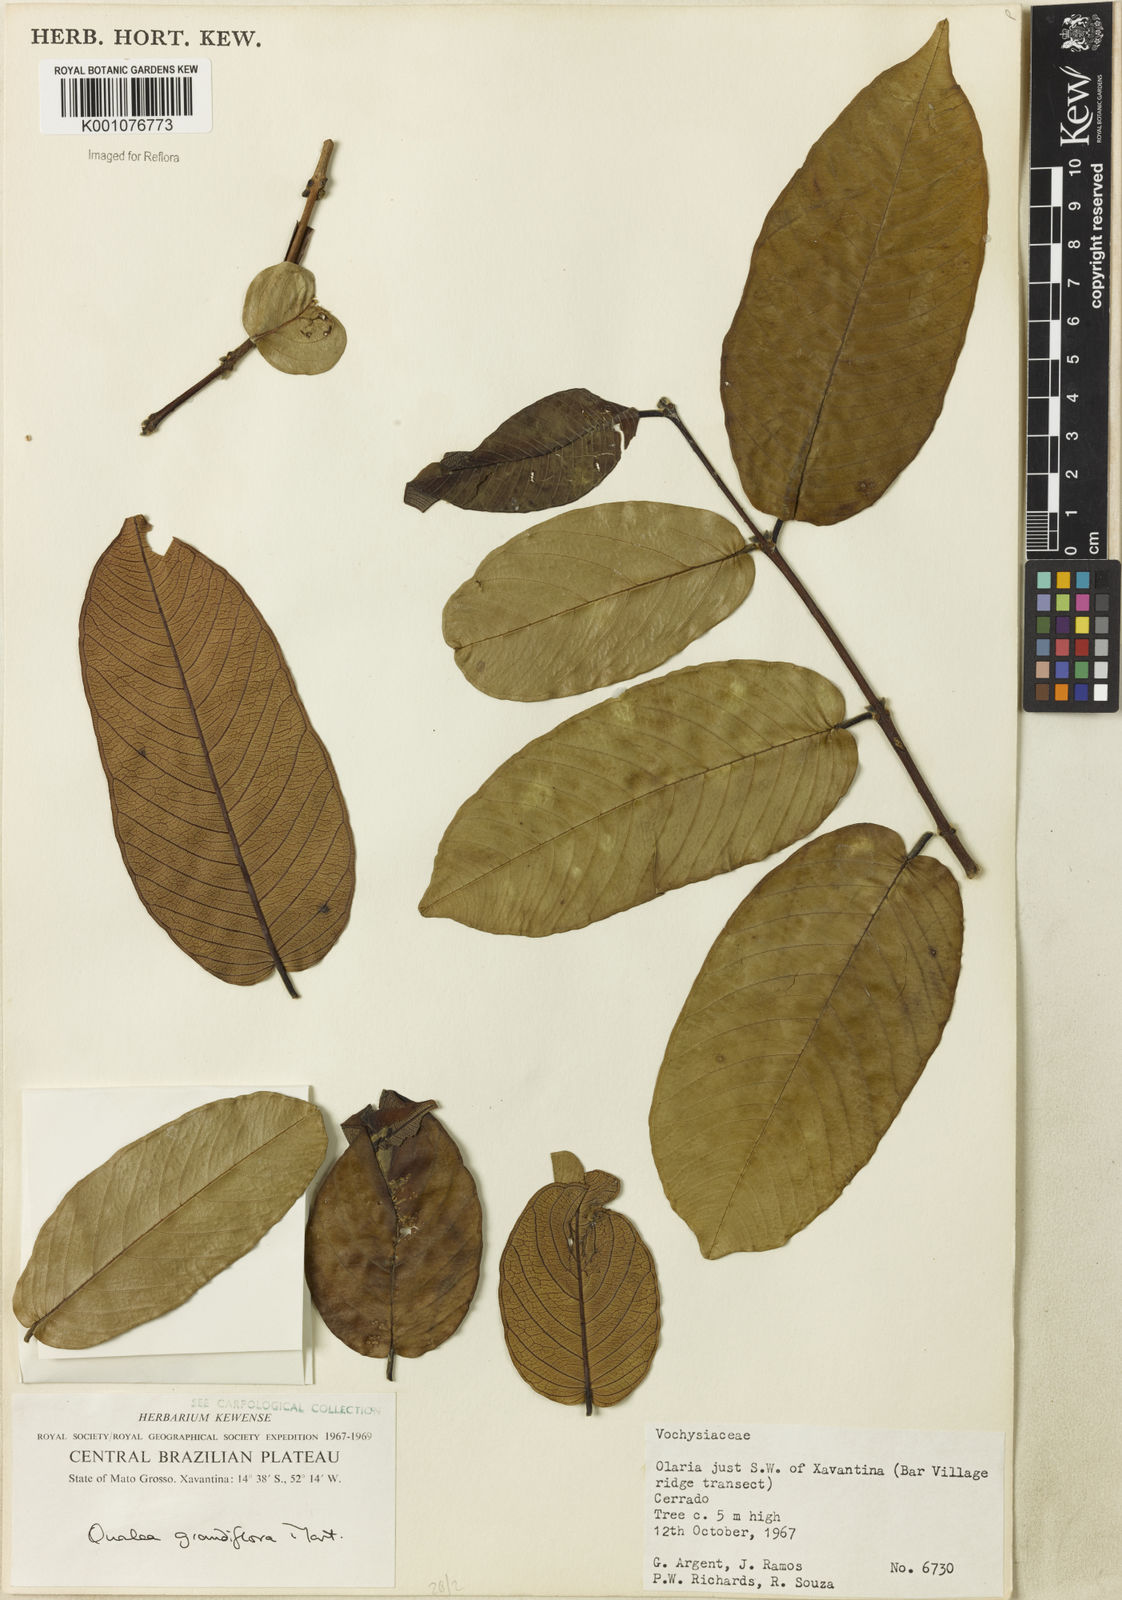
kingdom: Plantae
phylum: Tracheophyta
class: Magnoliopsida
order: Myrtales
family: Vochysiaceae
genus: Qualea
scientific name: Qualea grandiflora
